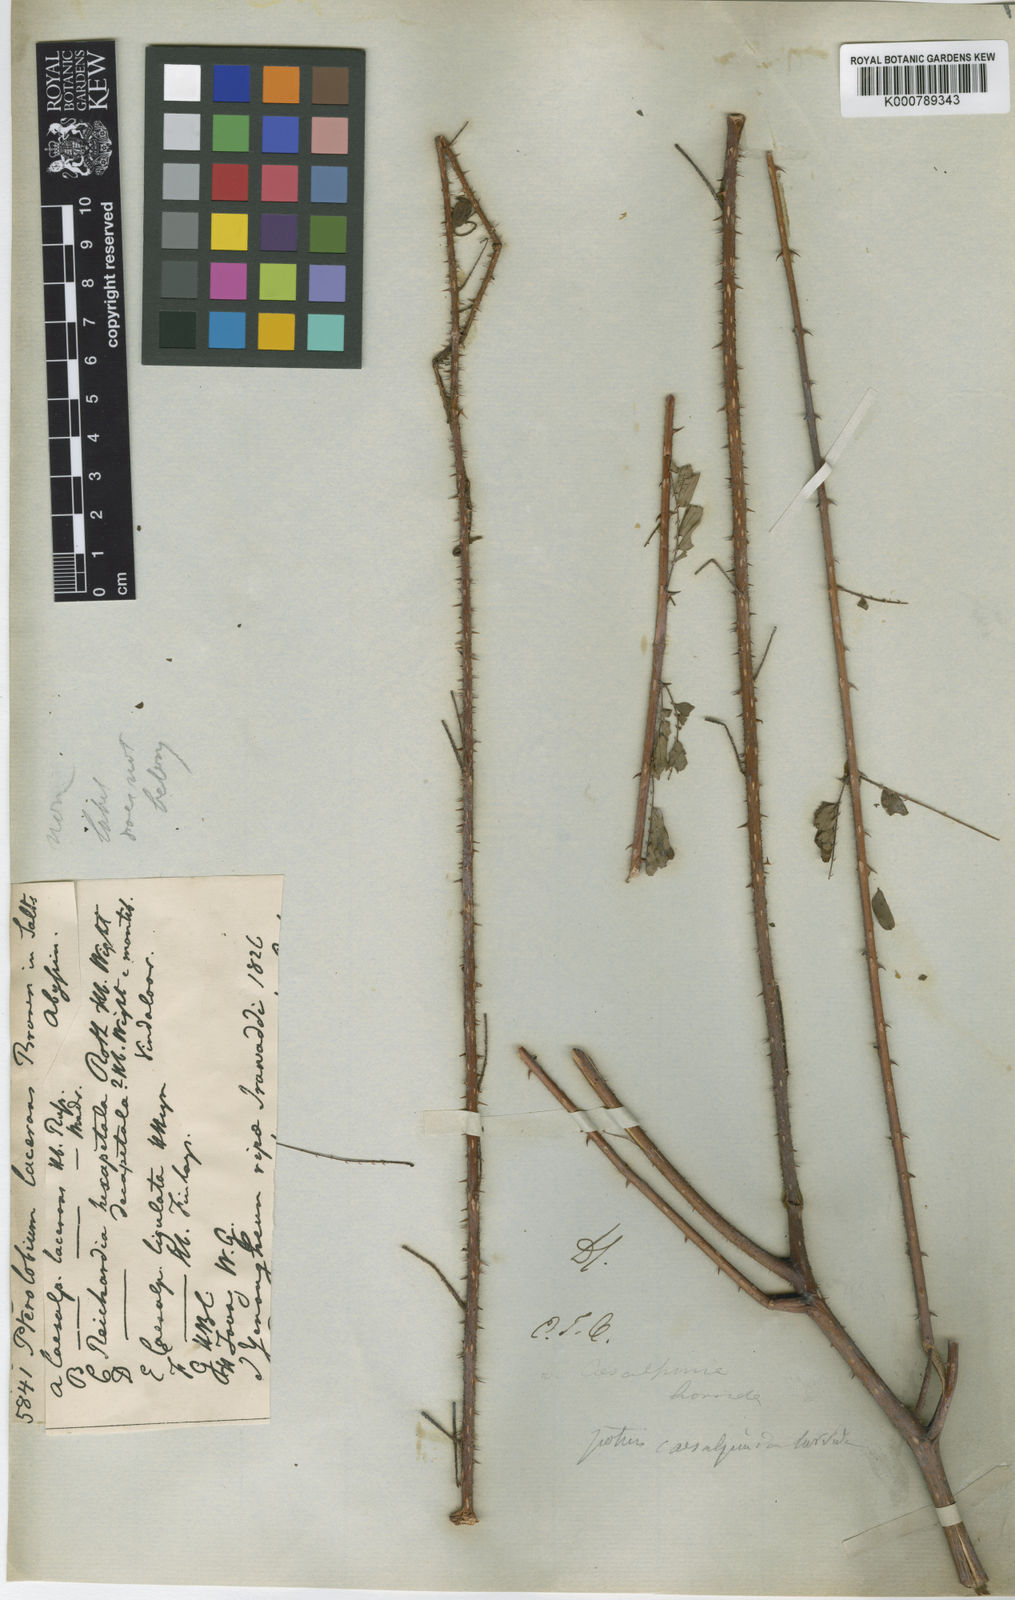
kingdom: Plantae
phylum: Tracheophyta
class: Magnoliopsida
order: Fabales
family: Fabaceae
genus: Hultholia
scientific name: Hultholia mimosoides
